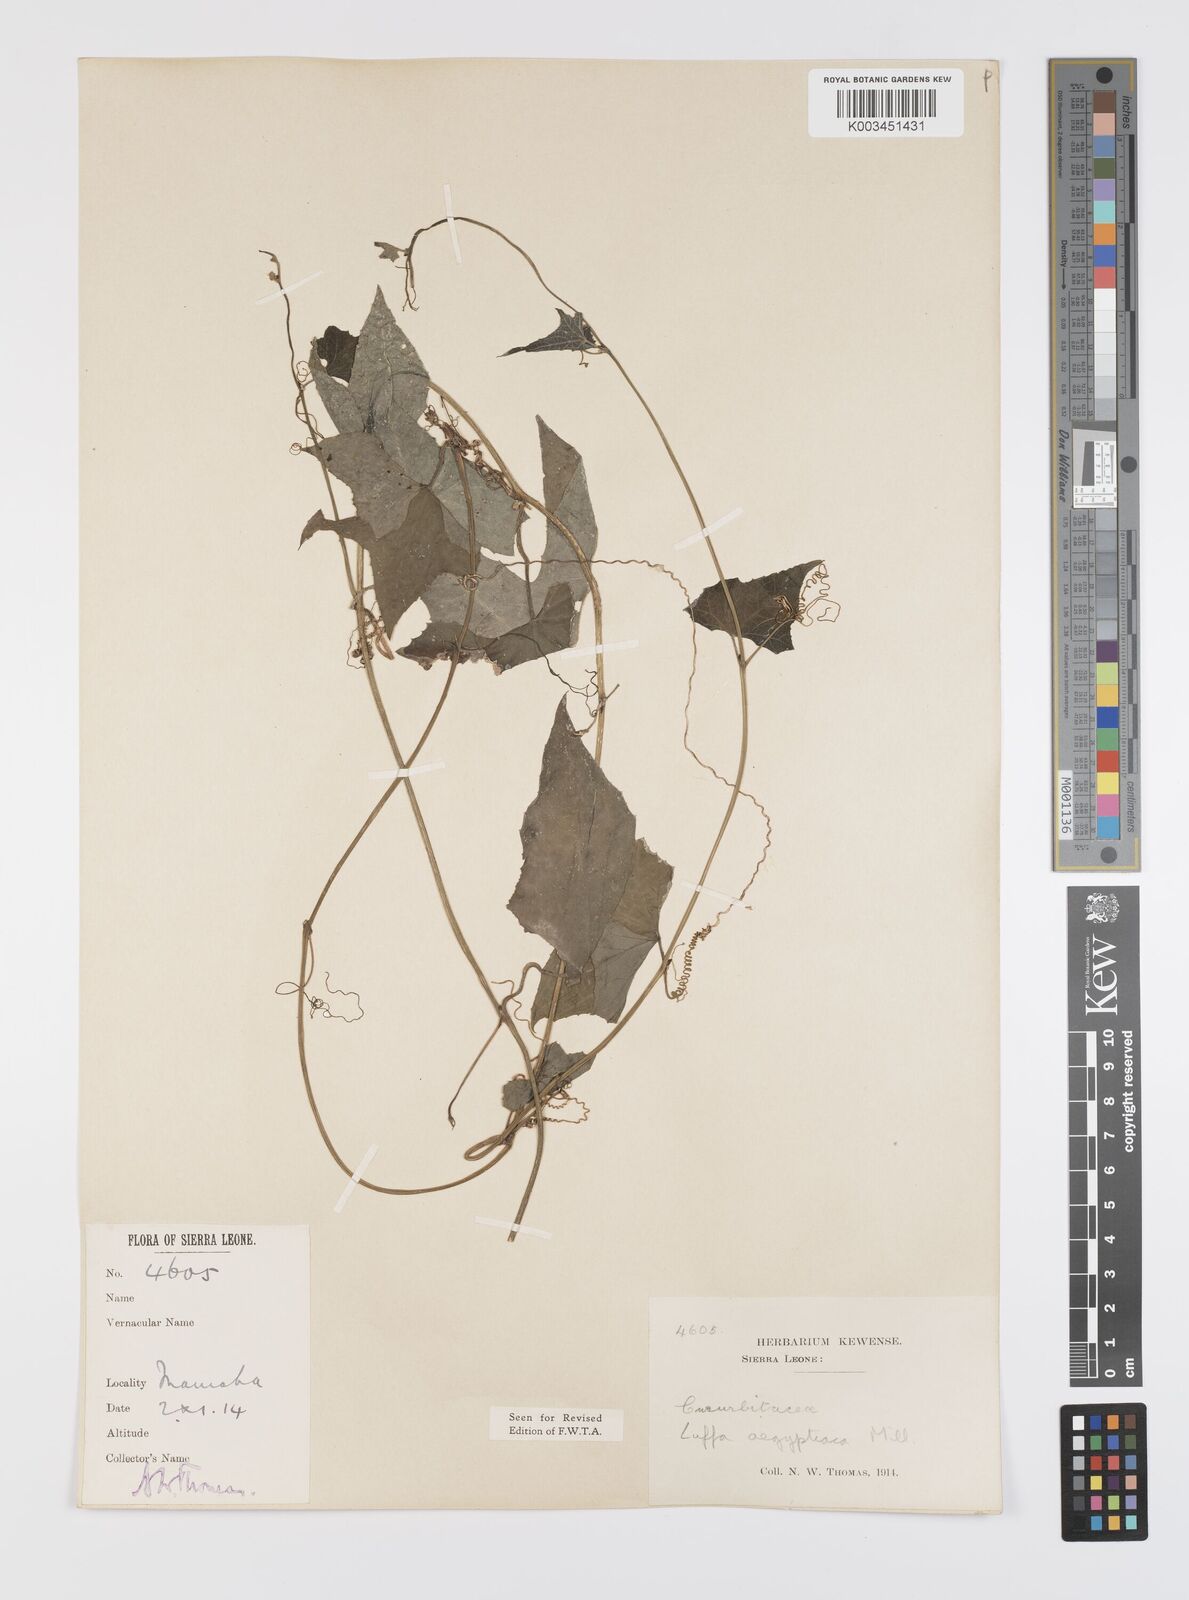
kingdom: Plantae
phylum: Tracheophyta
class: Magnoliopsida
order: Cucurbitales
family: Cucurbitaceae
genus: Luffa
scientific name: Luffa aegyptiaca
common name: Sponge gourd
